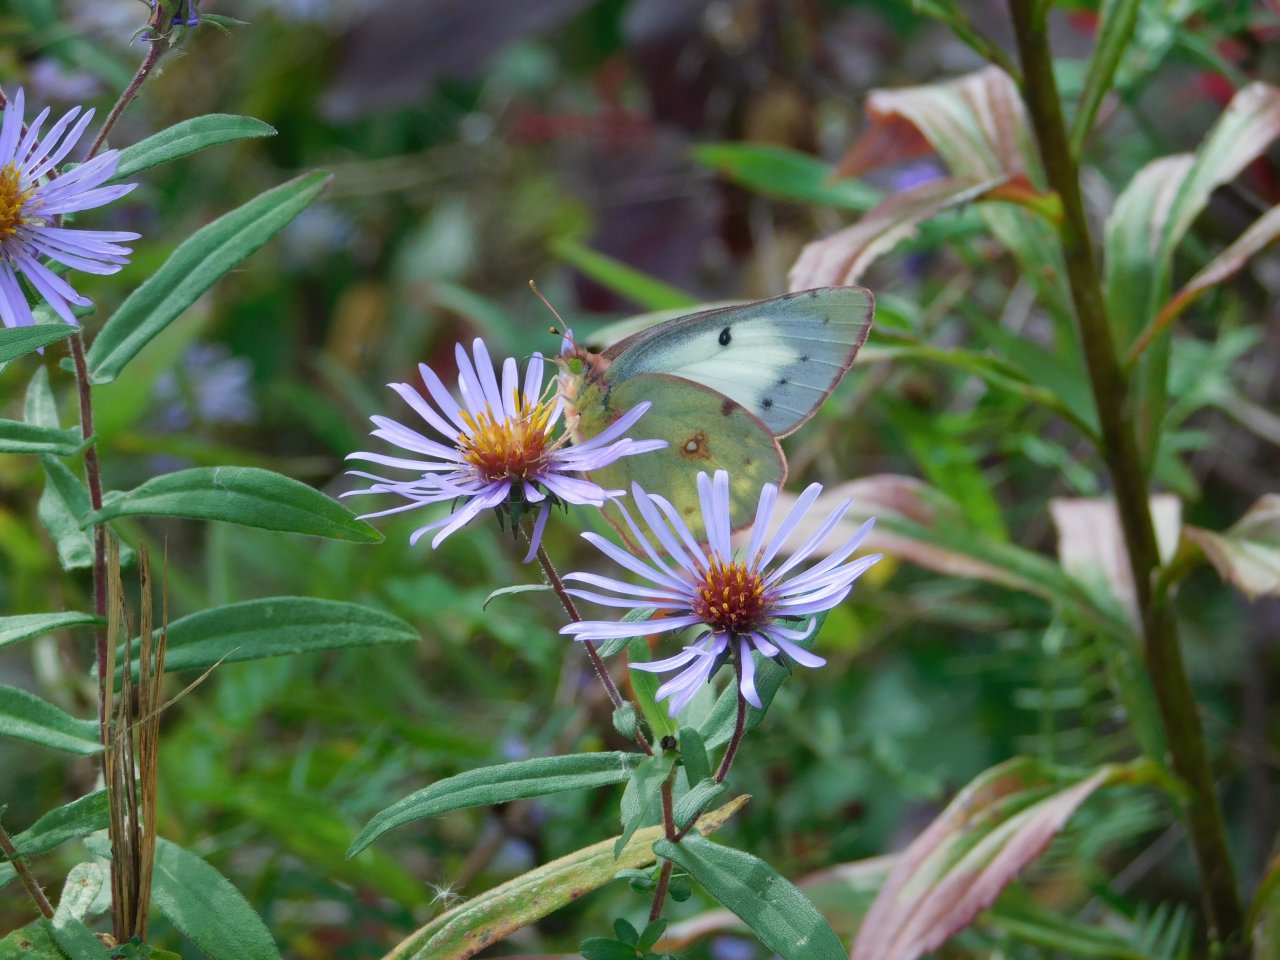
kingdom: Animalia
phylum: Arthropoda
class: Insecta
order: Lepidoptera
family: Pieridae
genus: Colias
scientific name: Colias philodice
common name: Clouded Sulphur
